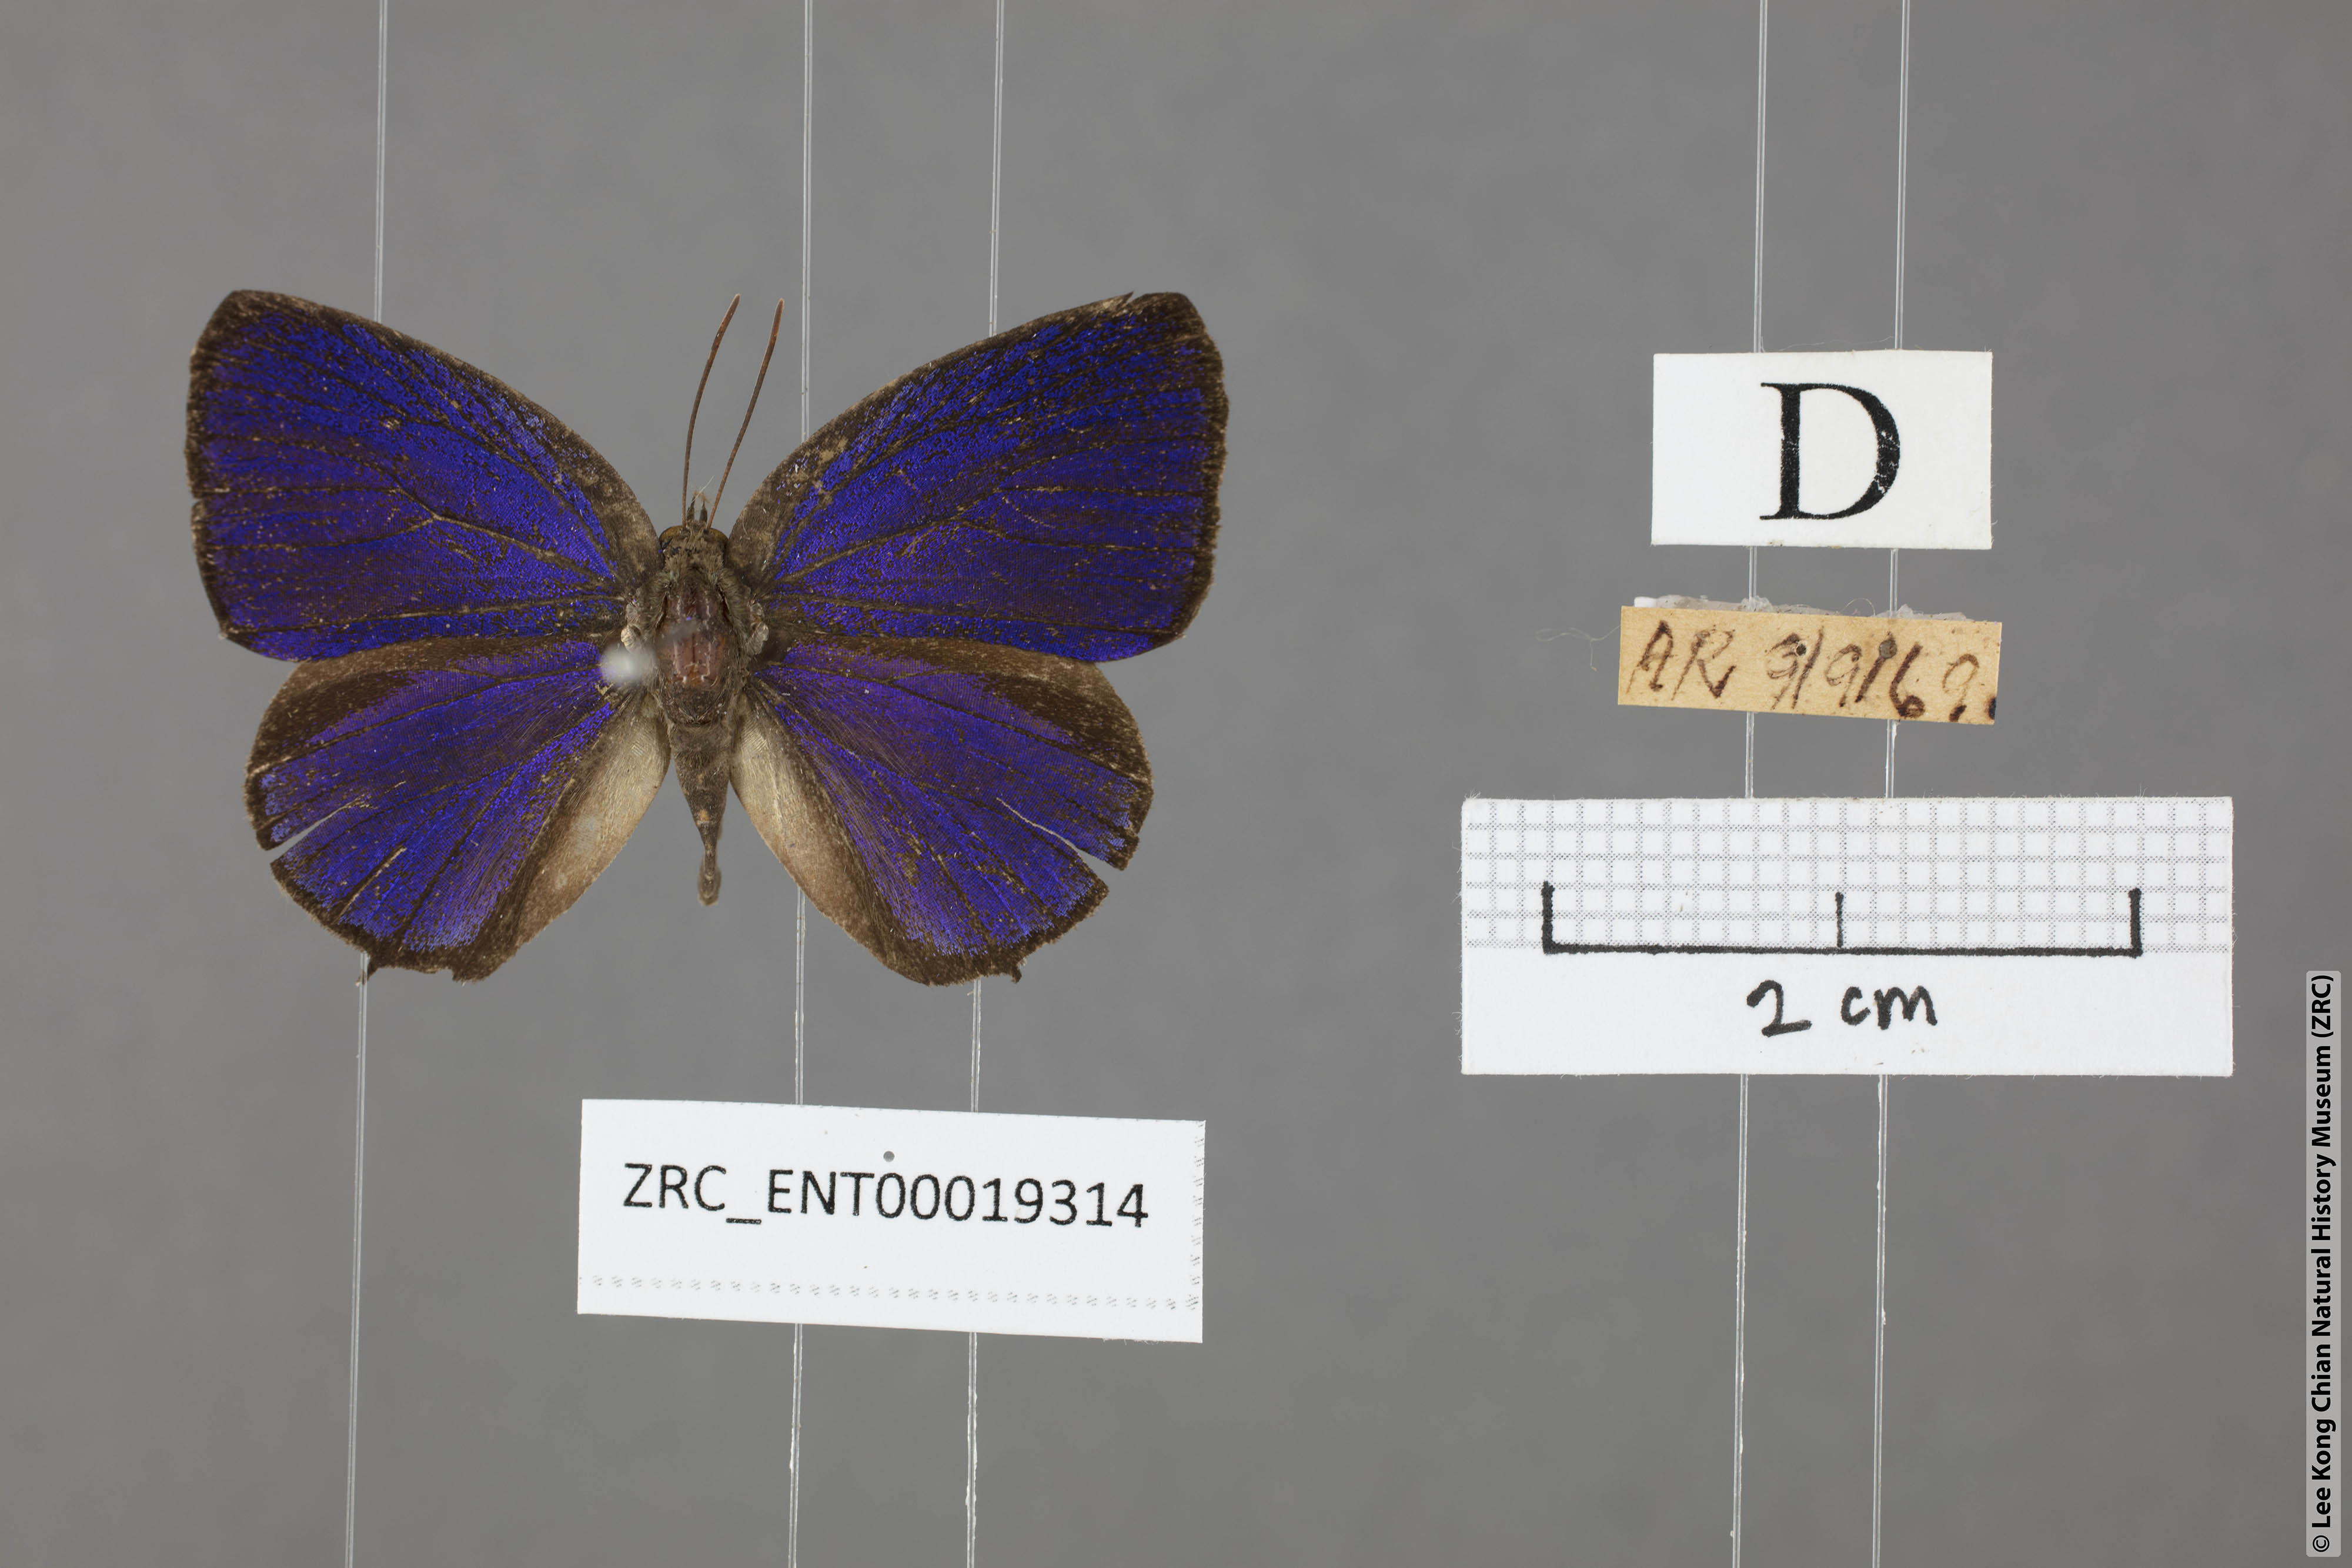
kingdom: Animalia
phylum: Arthropoda
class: Insecta
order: Lepidoptera
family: Lycaenidae
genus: Arhopala
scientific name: Arhopala buddha
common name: Buddha oakblue
